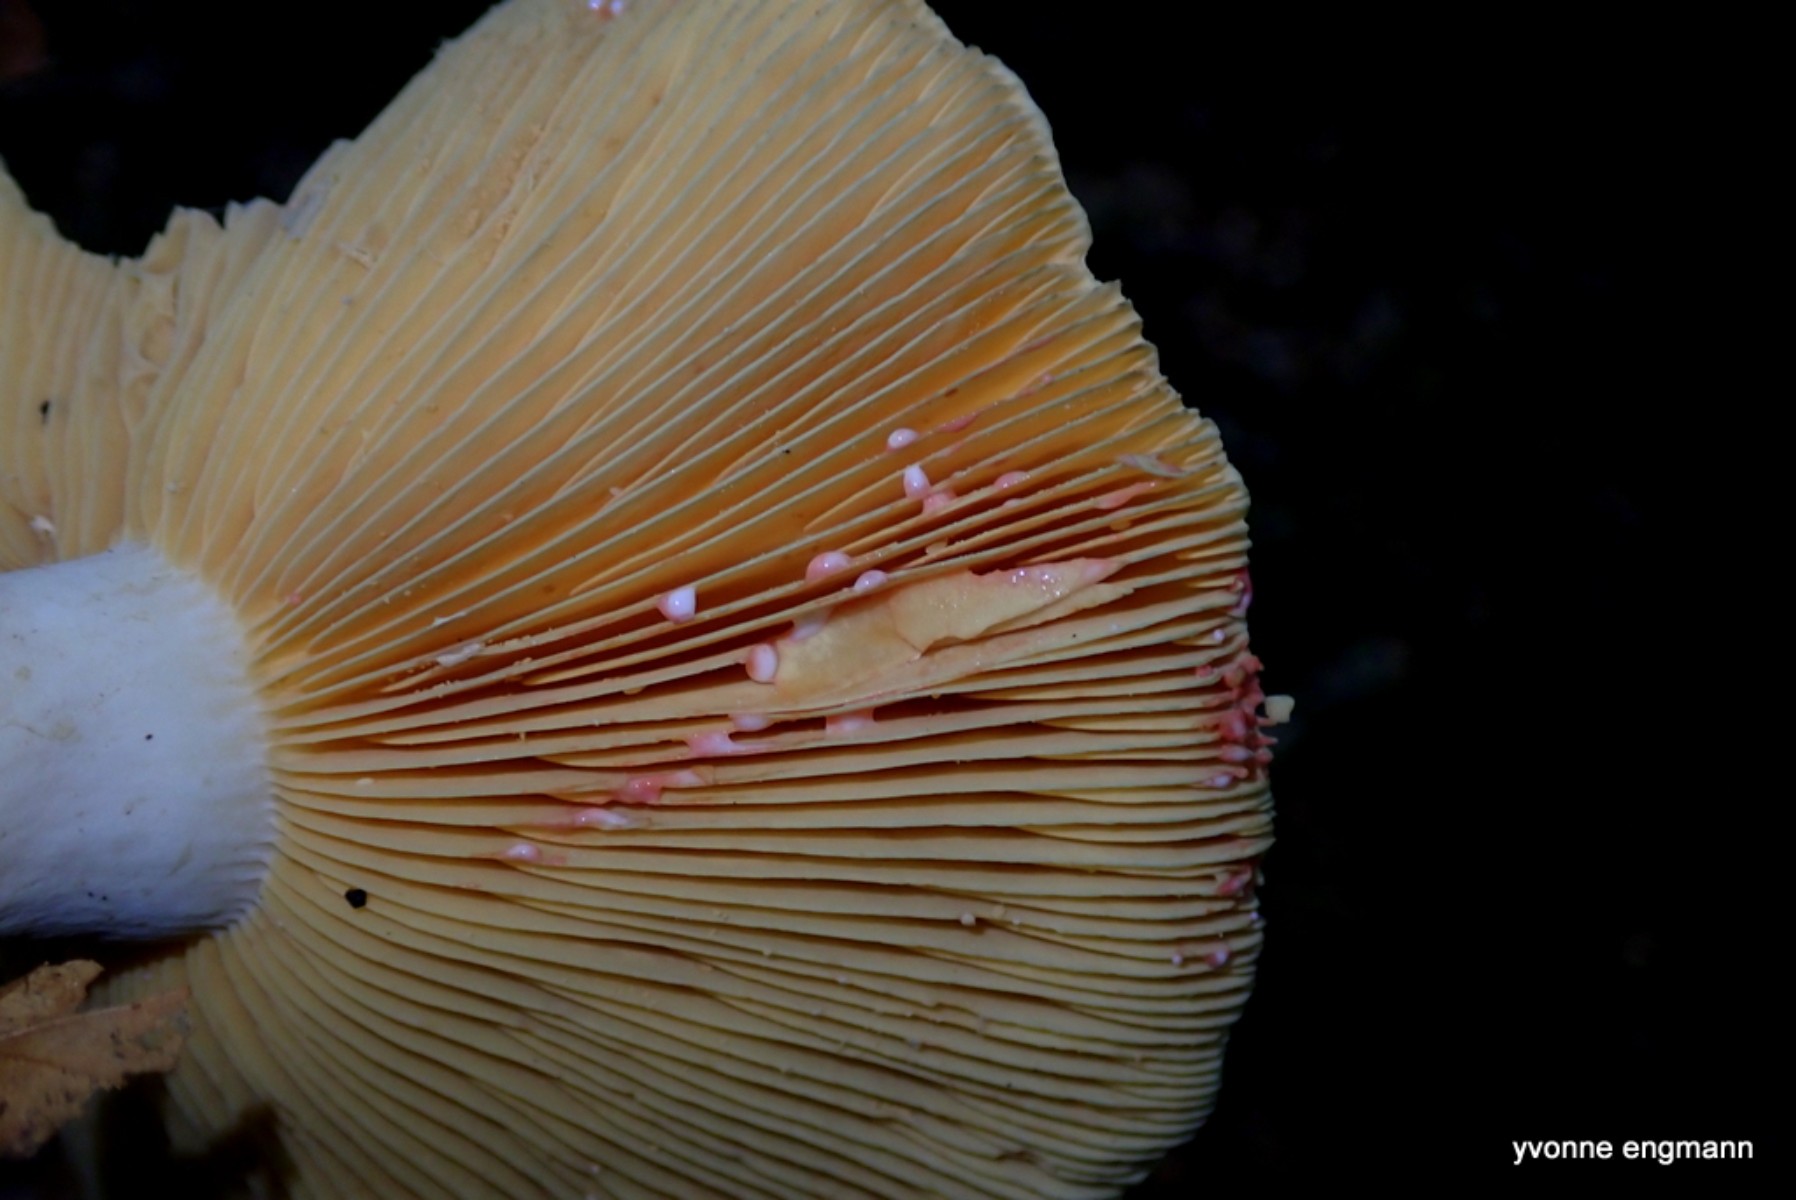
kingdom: Fungi
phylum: Basidiomycota
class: Agaricomycetes
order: Russulales
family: Russulaceae
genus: Lactarius
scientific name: Lactarius acris
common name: rosamælket mælkehat
